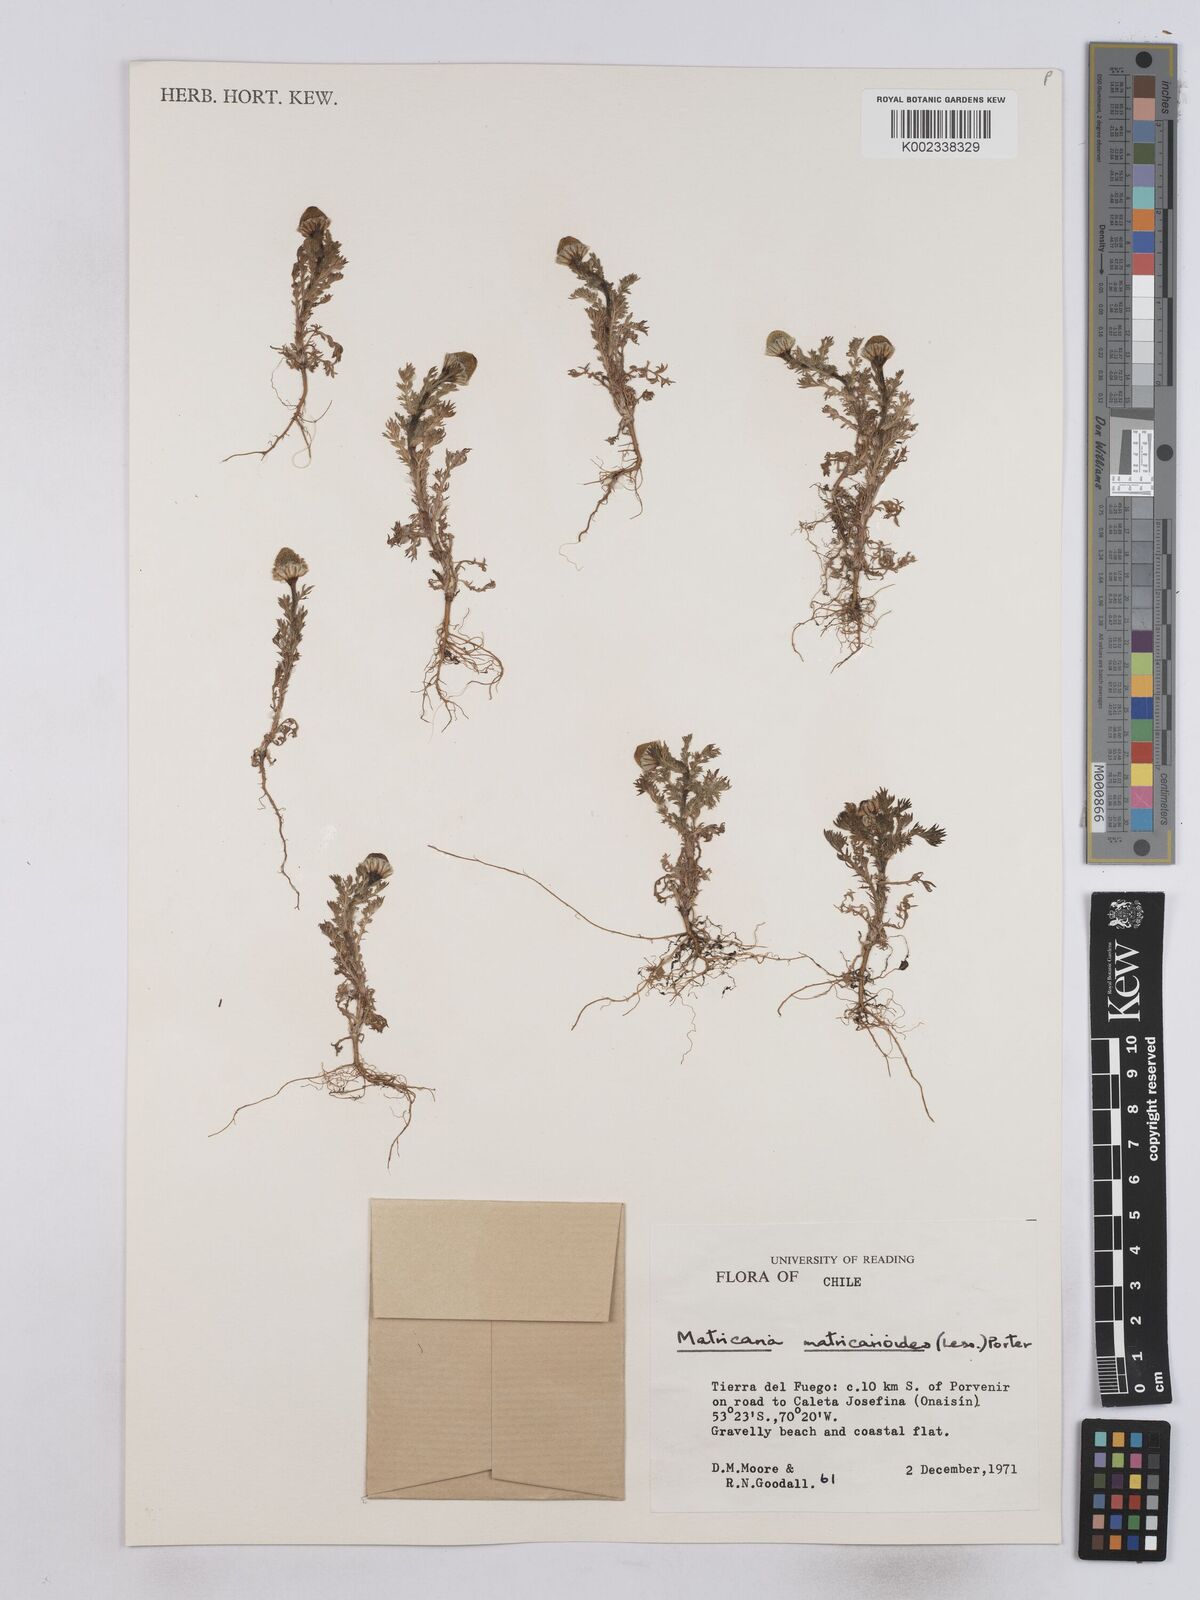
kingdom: Plantae
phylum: Tracheophyta
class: Magnoliopsida
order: Asterales
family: Asteraceae
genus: Matricaria
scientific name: Matricaria discoidea
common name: Disc mayweed
